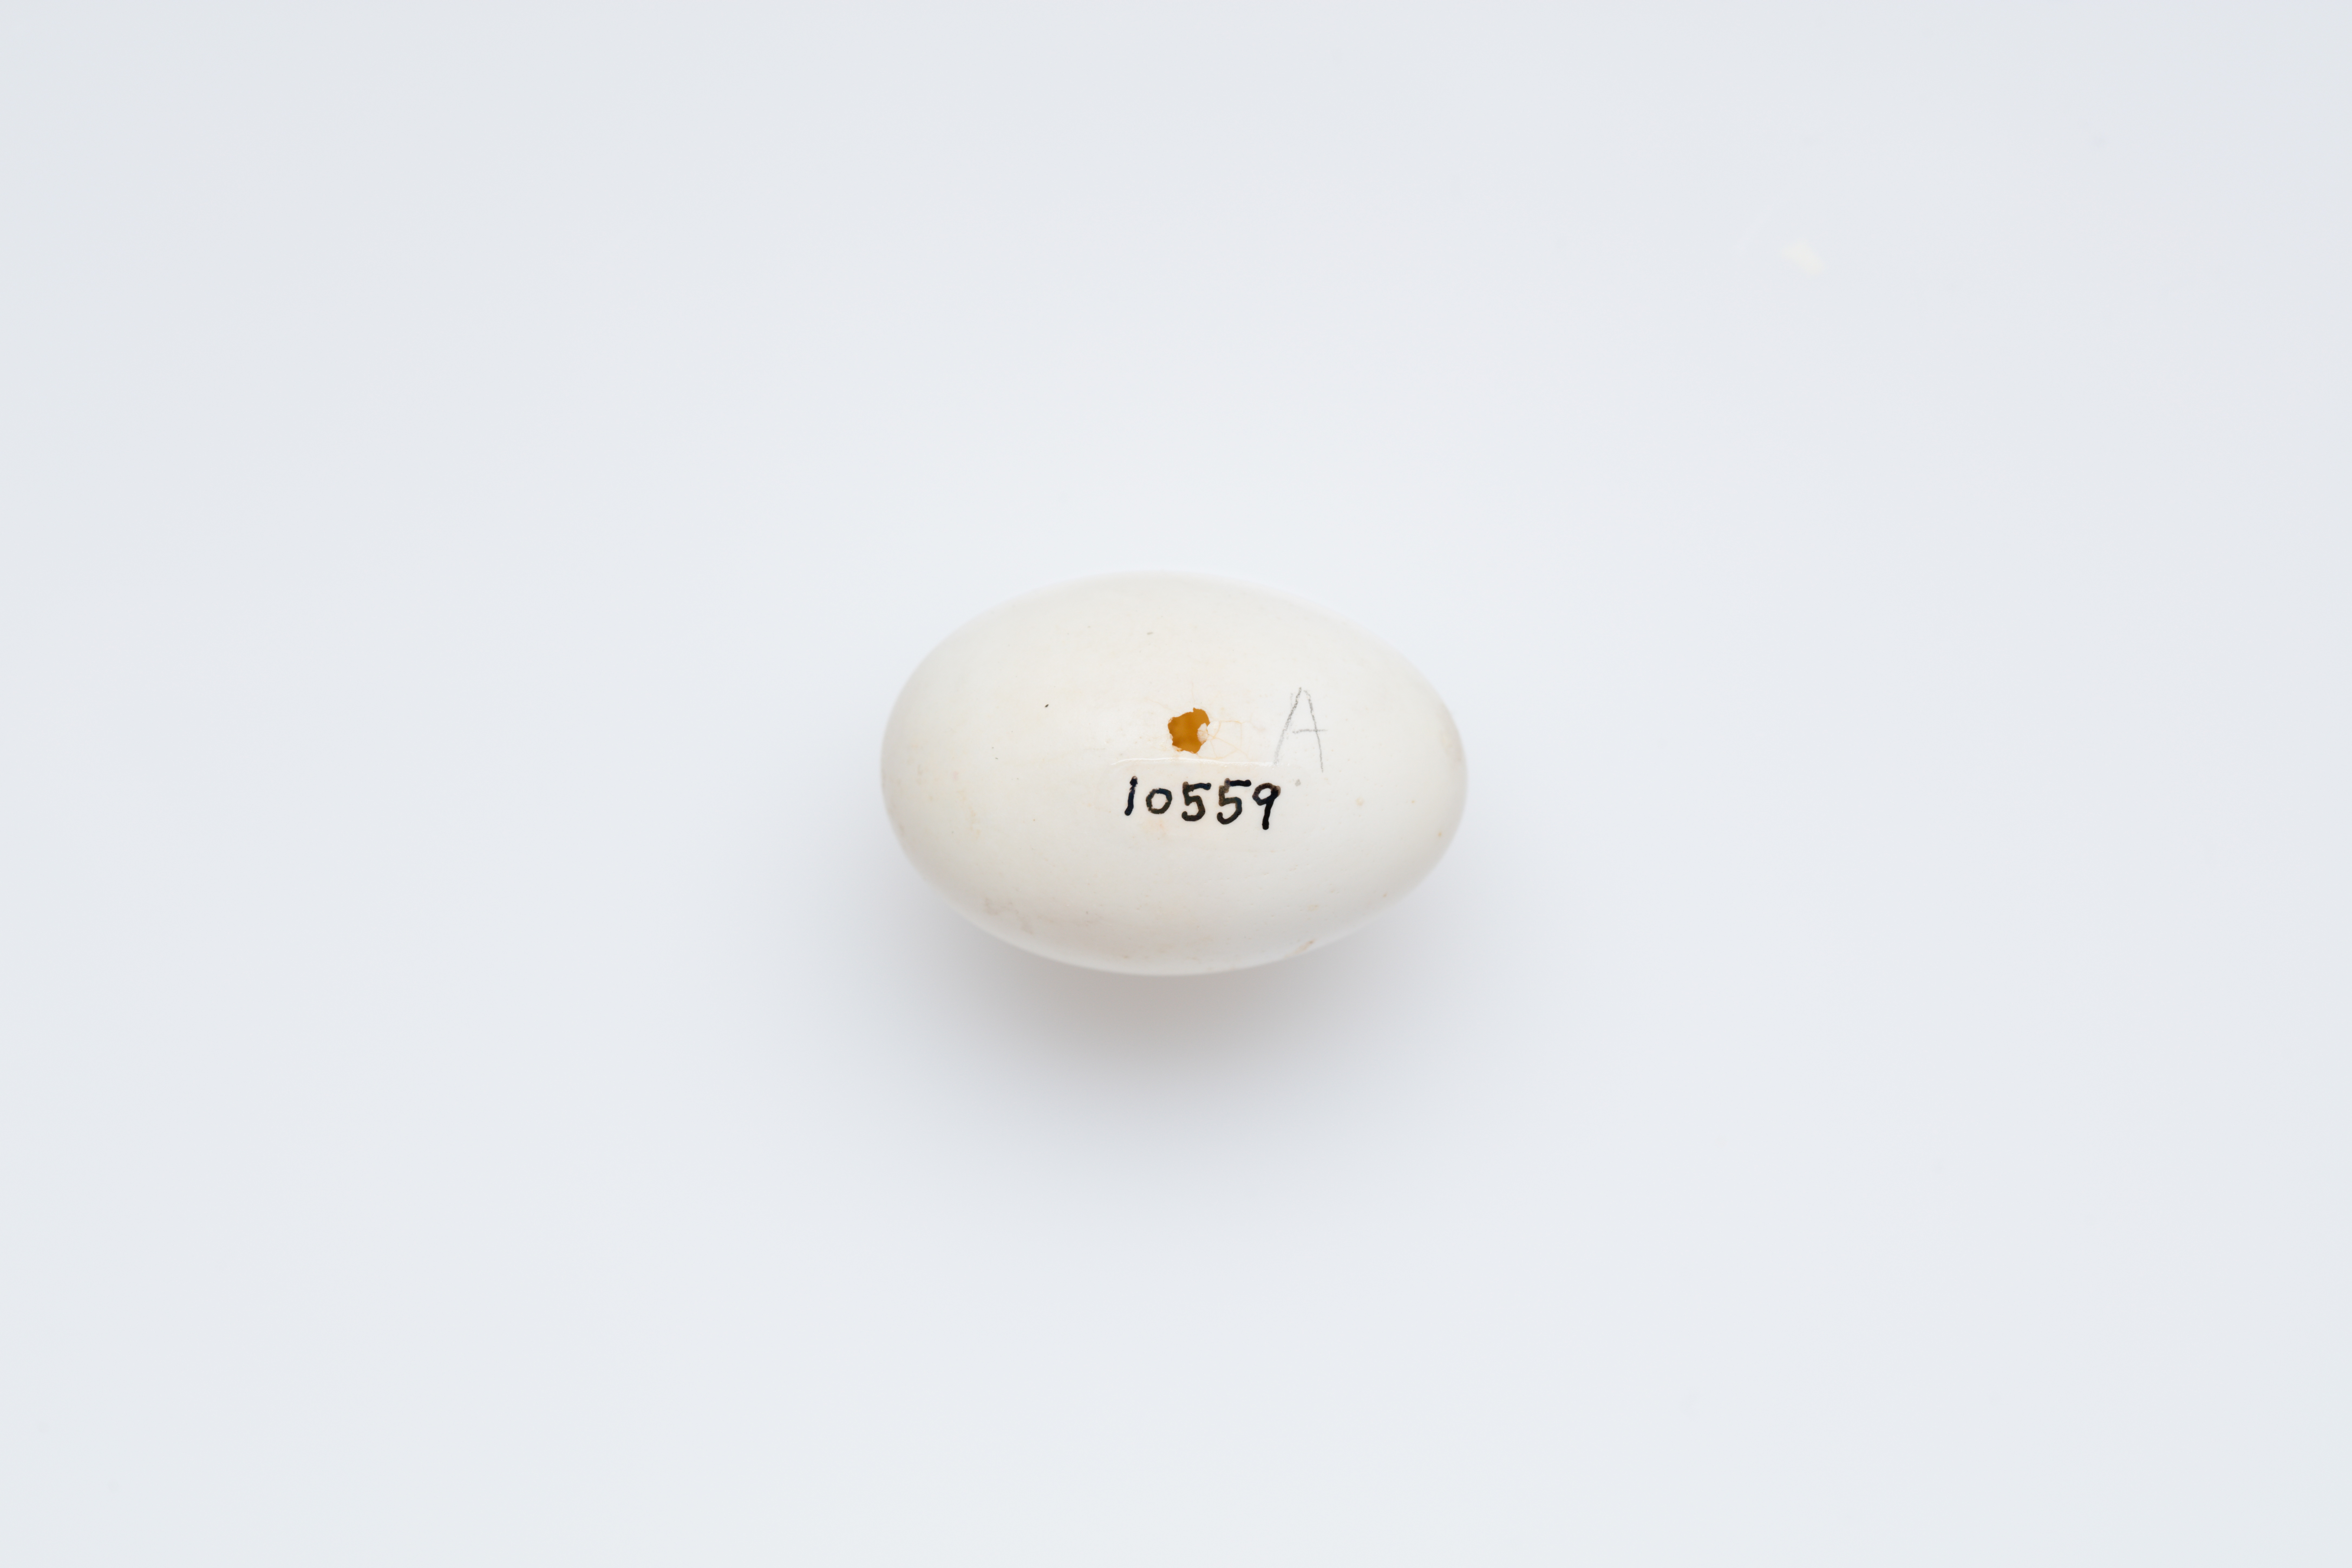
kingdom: Animalia
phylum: Chordata
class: Aves
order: Columbiformes
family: Columbidae
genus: Streptopelia
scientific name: Streptopelia turtur
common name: European turtle dove
